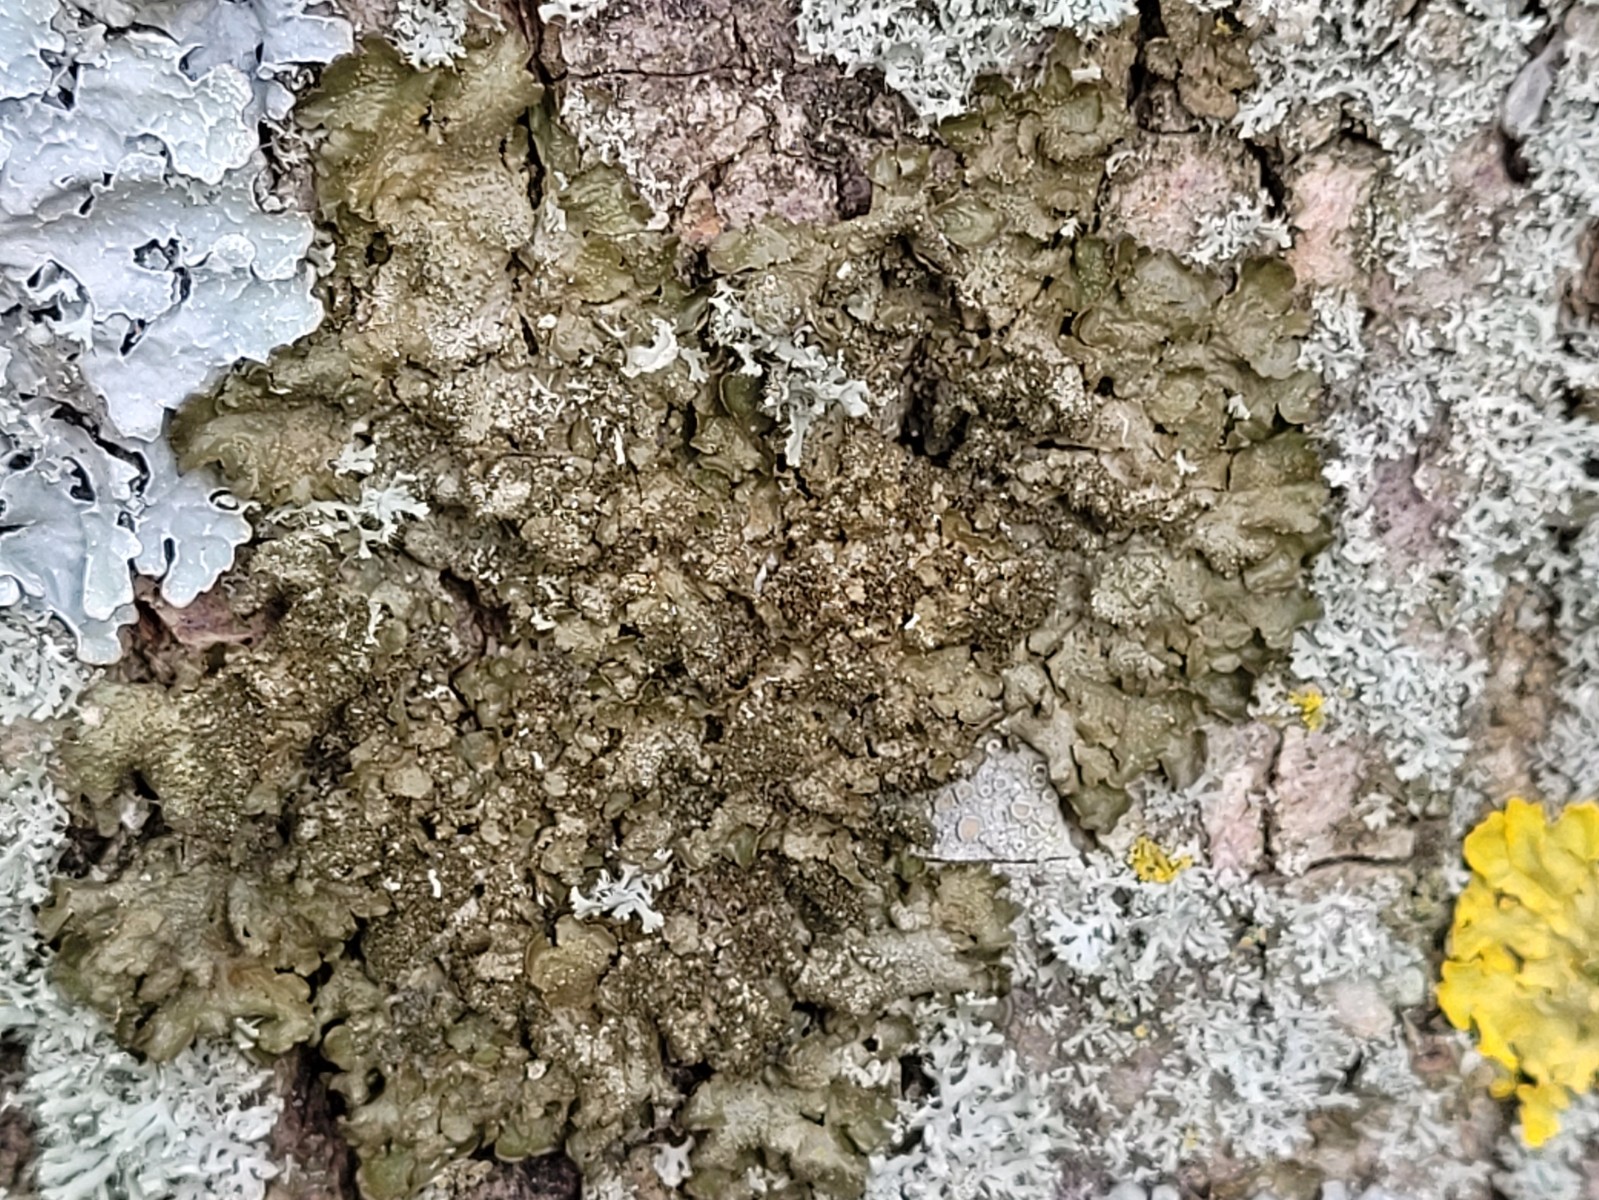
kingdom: Fungi
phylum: Ascomycota
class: Lecanoromycetes
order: Lecanorales
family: Parmeliaceae
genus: Melanelixia
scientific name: Melanelixia glabratula
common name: glinsende skållav
